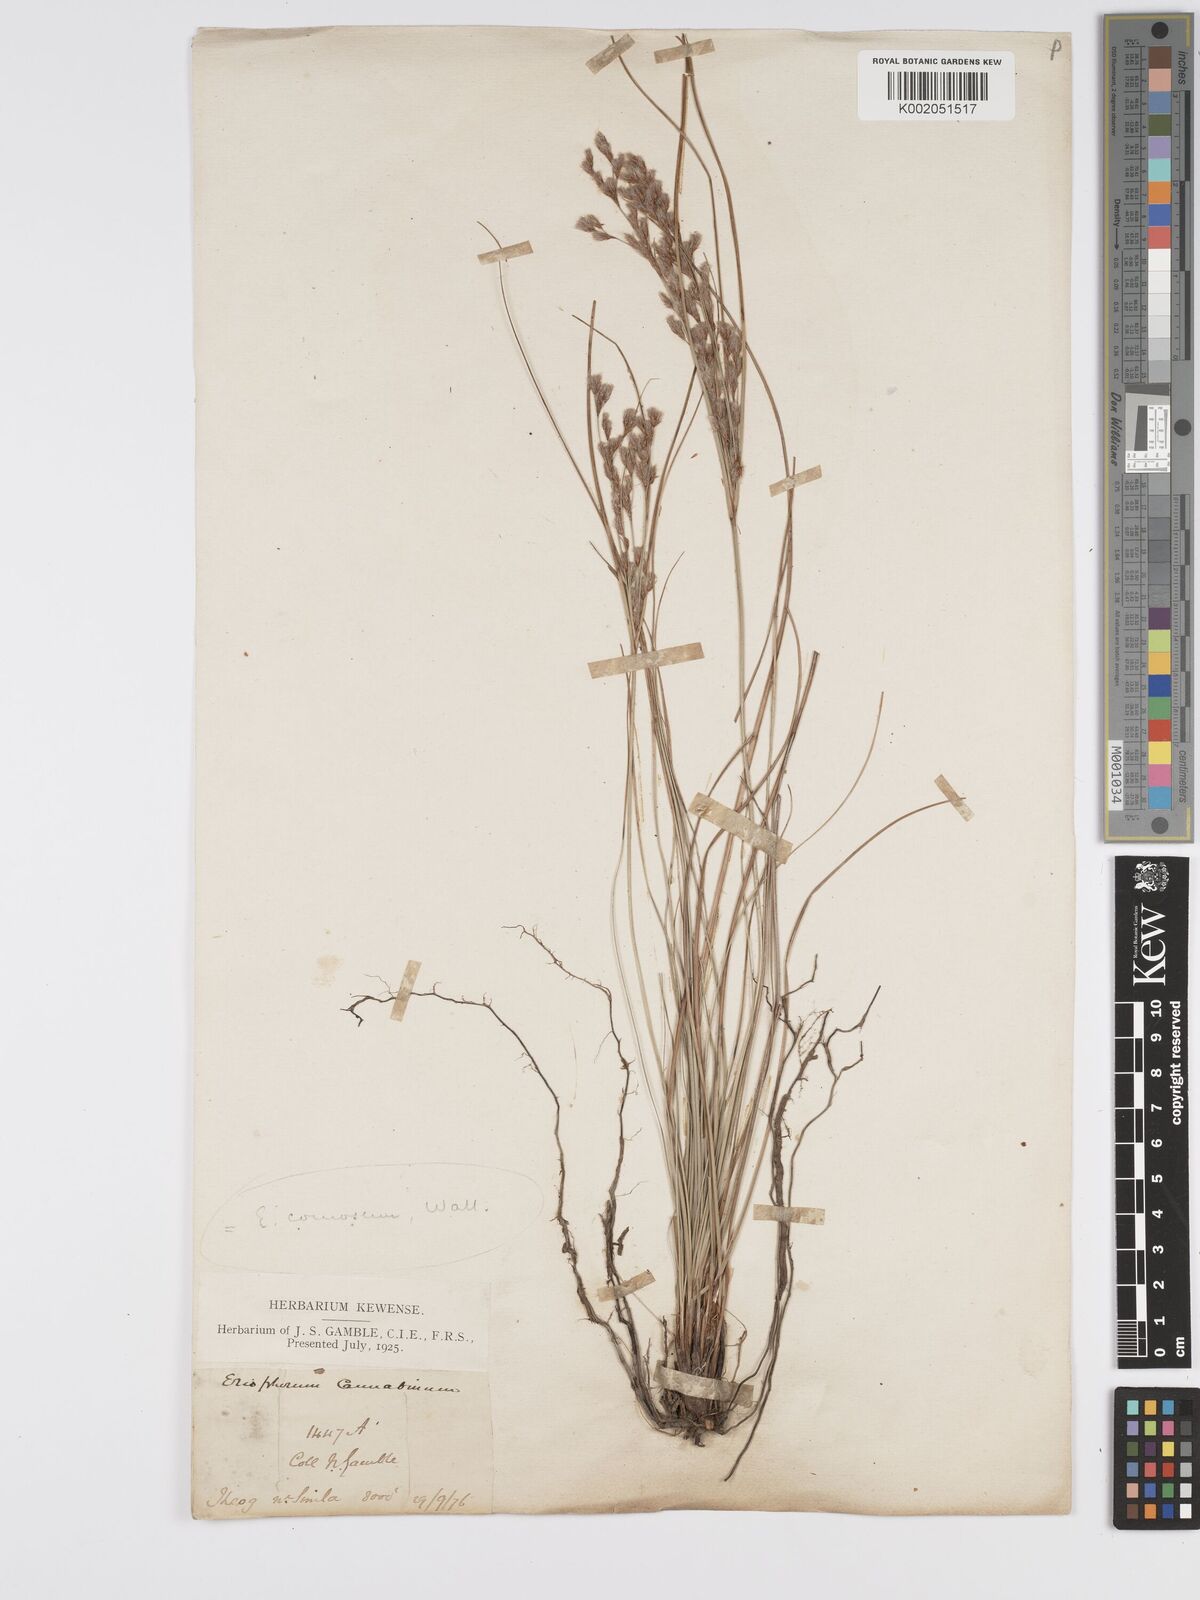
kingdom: Plantae
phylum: Tracheophyta
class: Liliopsida
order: Poales
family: Cyperaceae
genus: Erioscirpus
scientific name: Erioscirpus comosus
